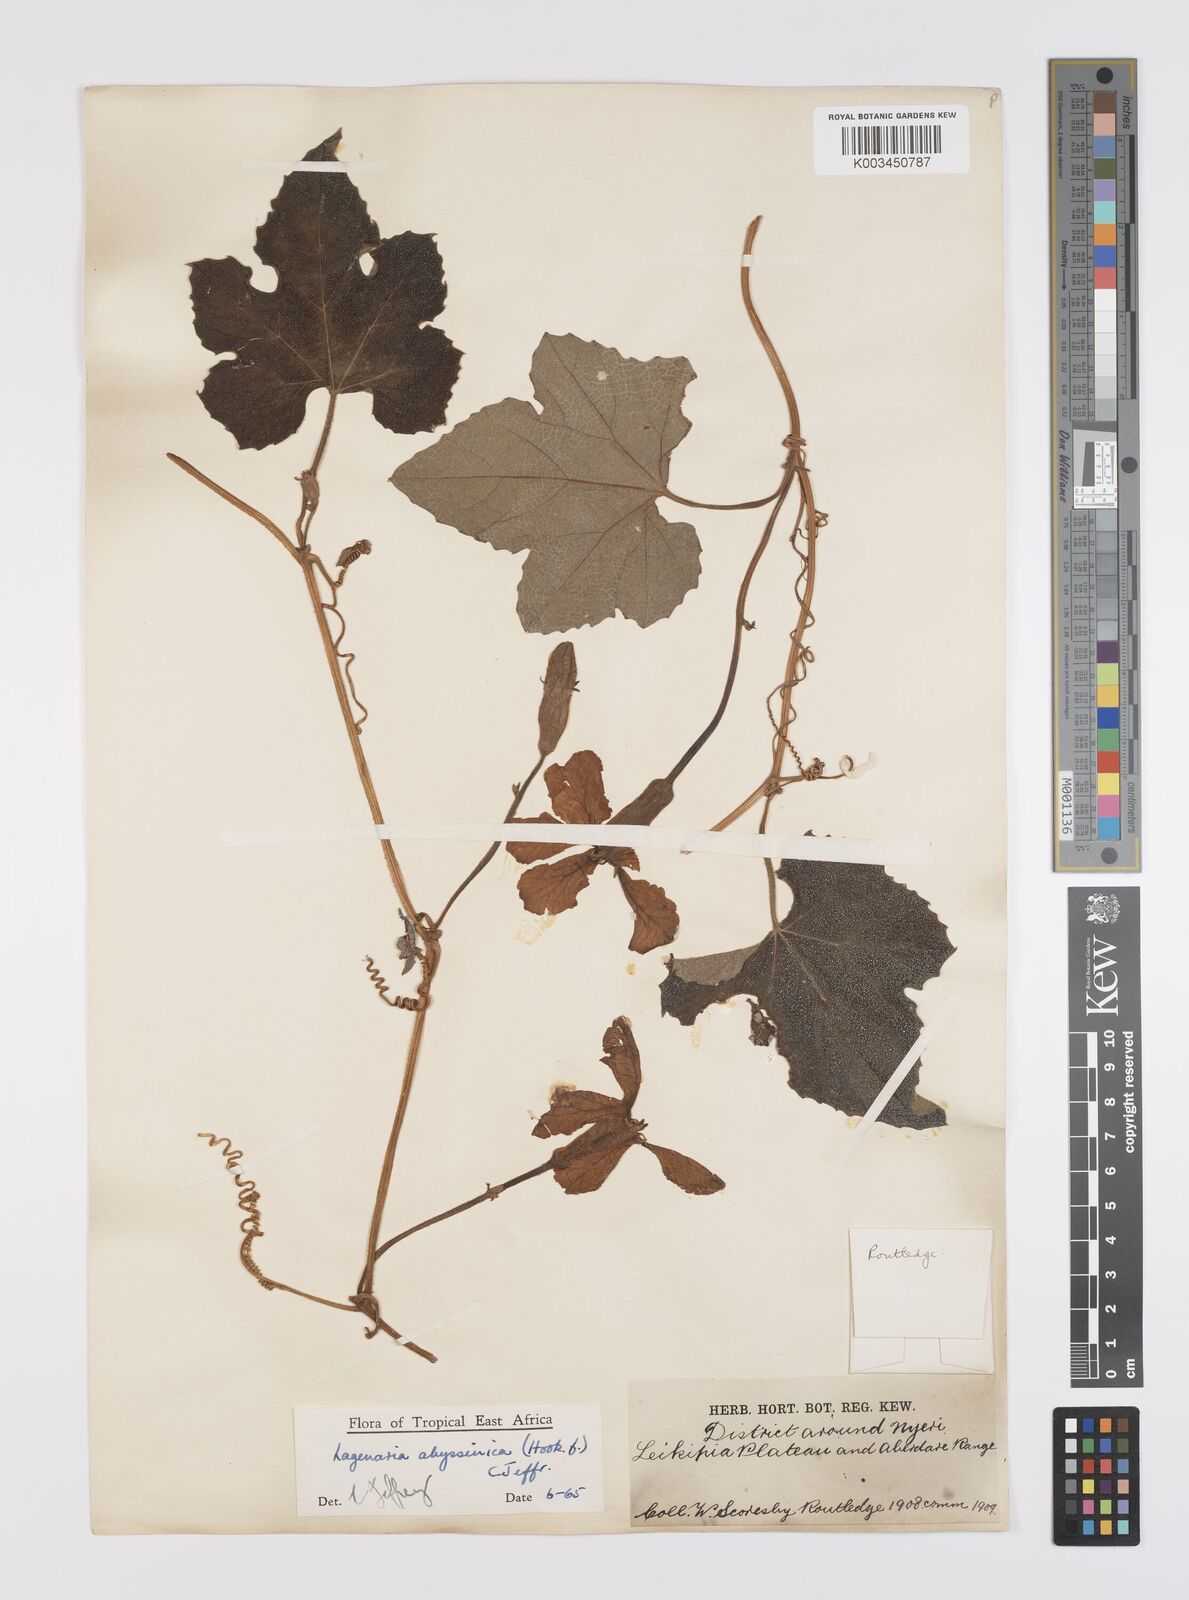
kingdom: Plantae
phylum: Tracheophyta
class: Magnoliopsida
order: Cucurbitales
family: Cucurbitaceae
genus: Lagenaria
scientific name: Lagenaria abyssinica
